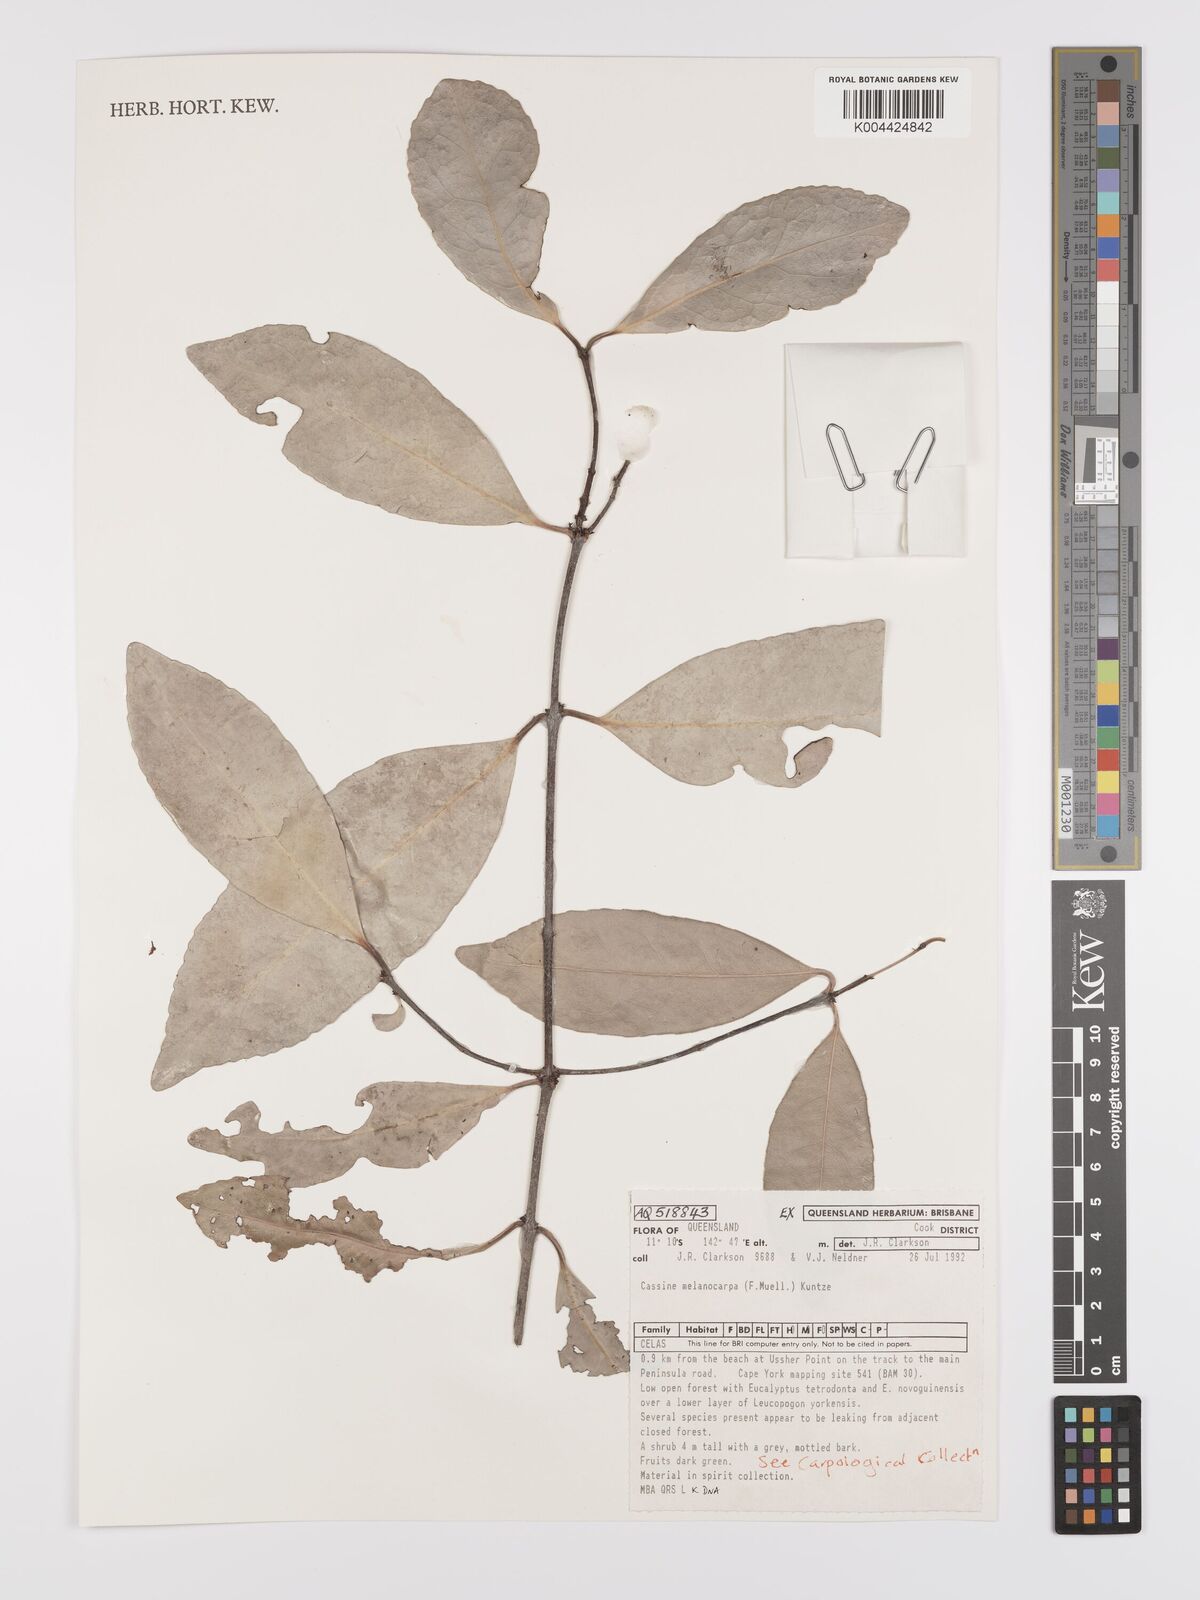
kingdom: Plantae
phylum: Tracheophyta
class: Magnoliopsida
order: Celastrales
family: Celastraceae
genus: Elaeodendron
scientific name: Elaeodendron melanocarpum
